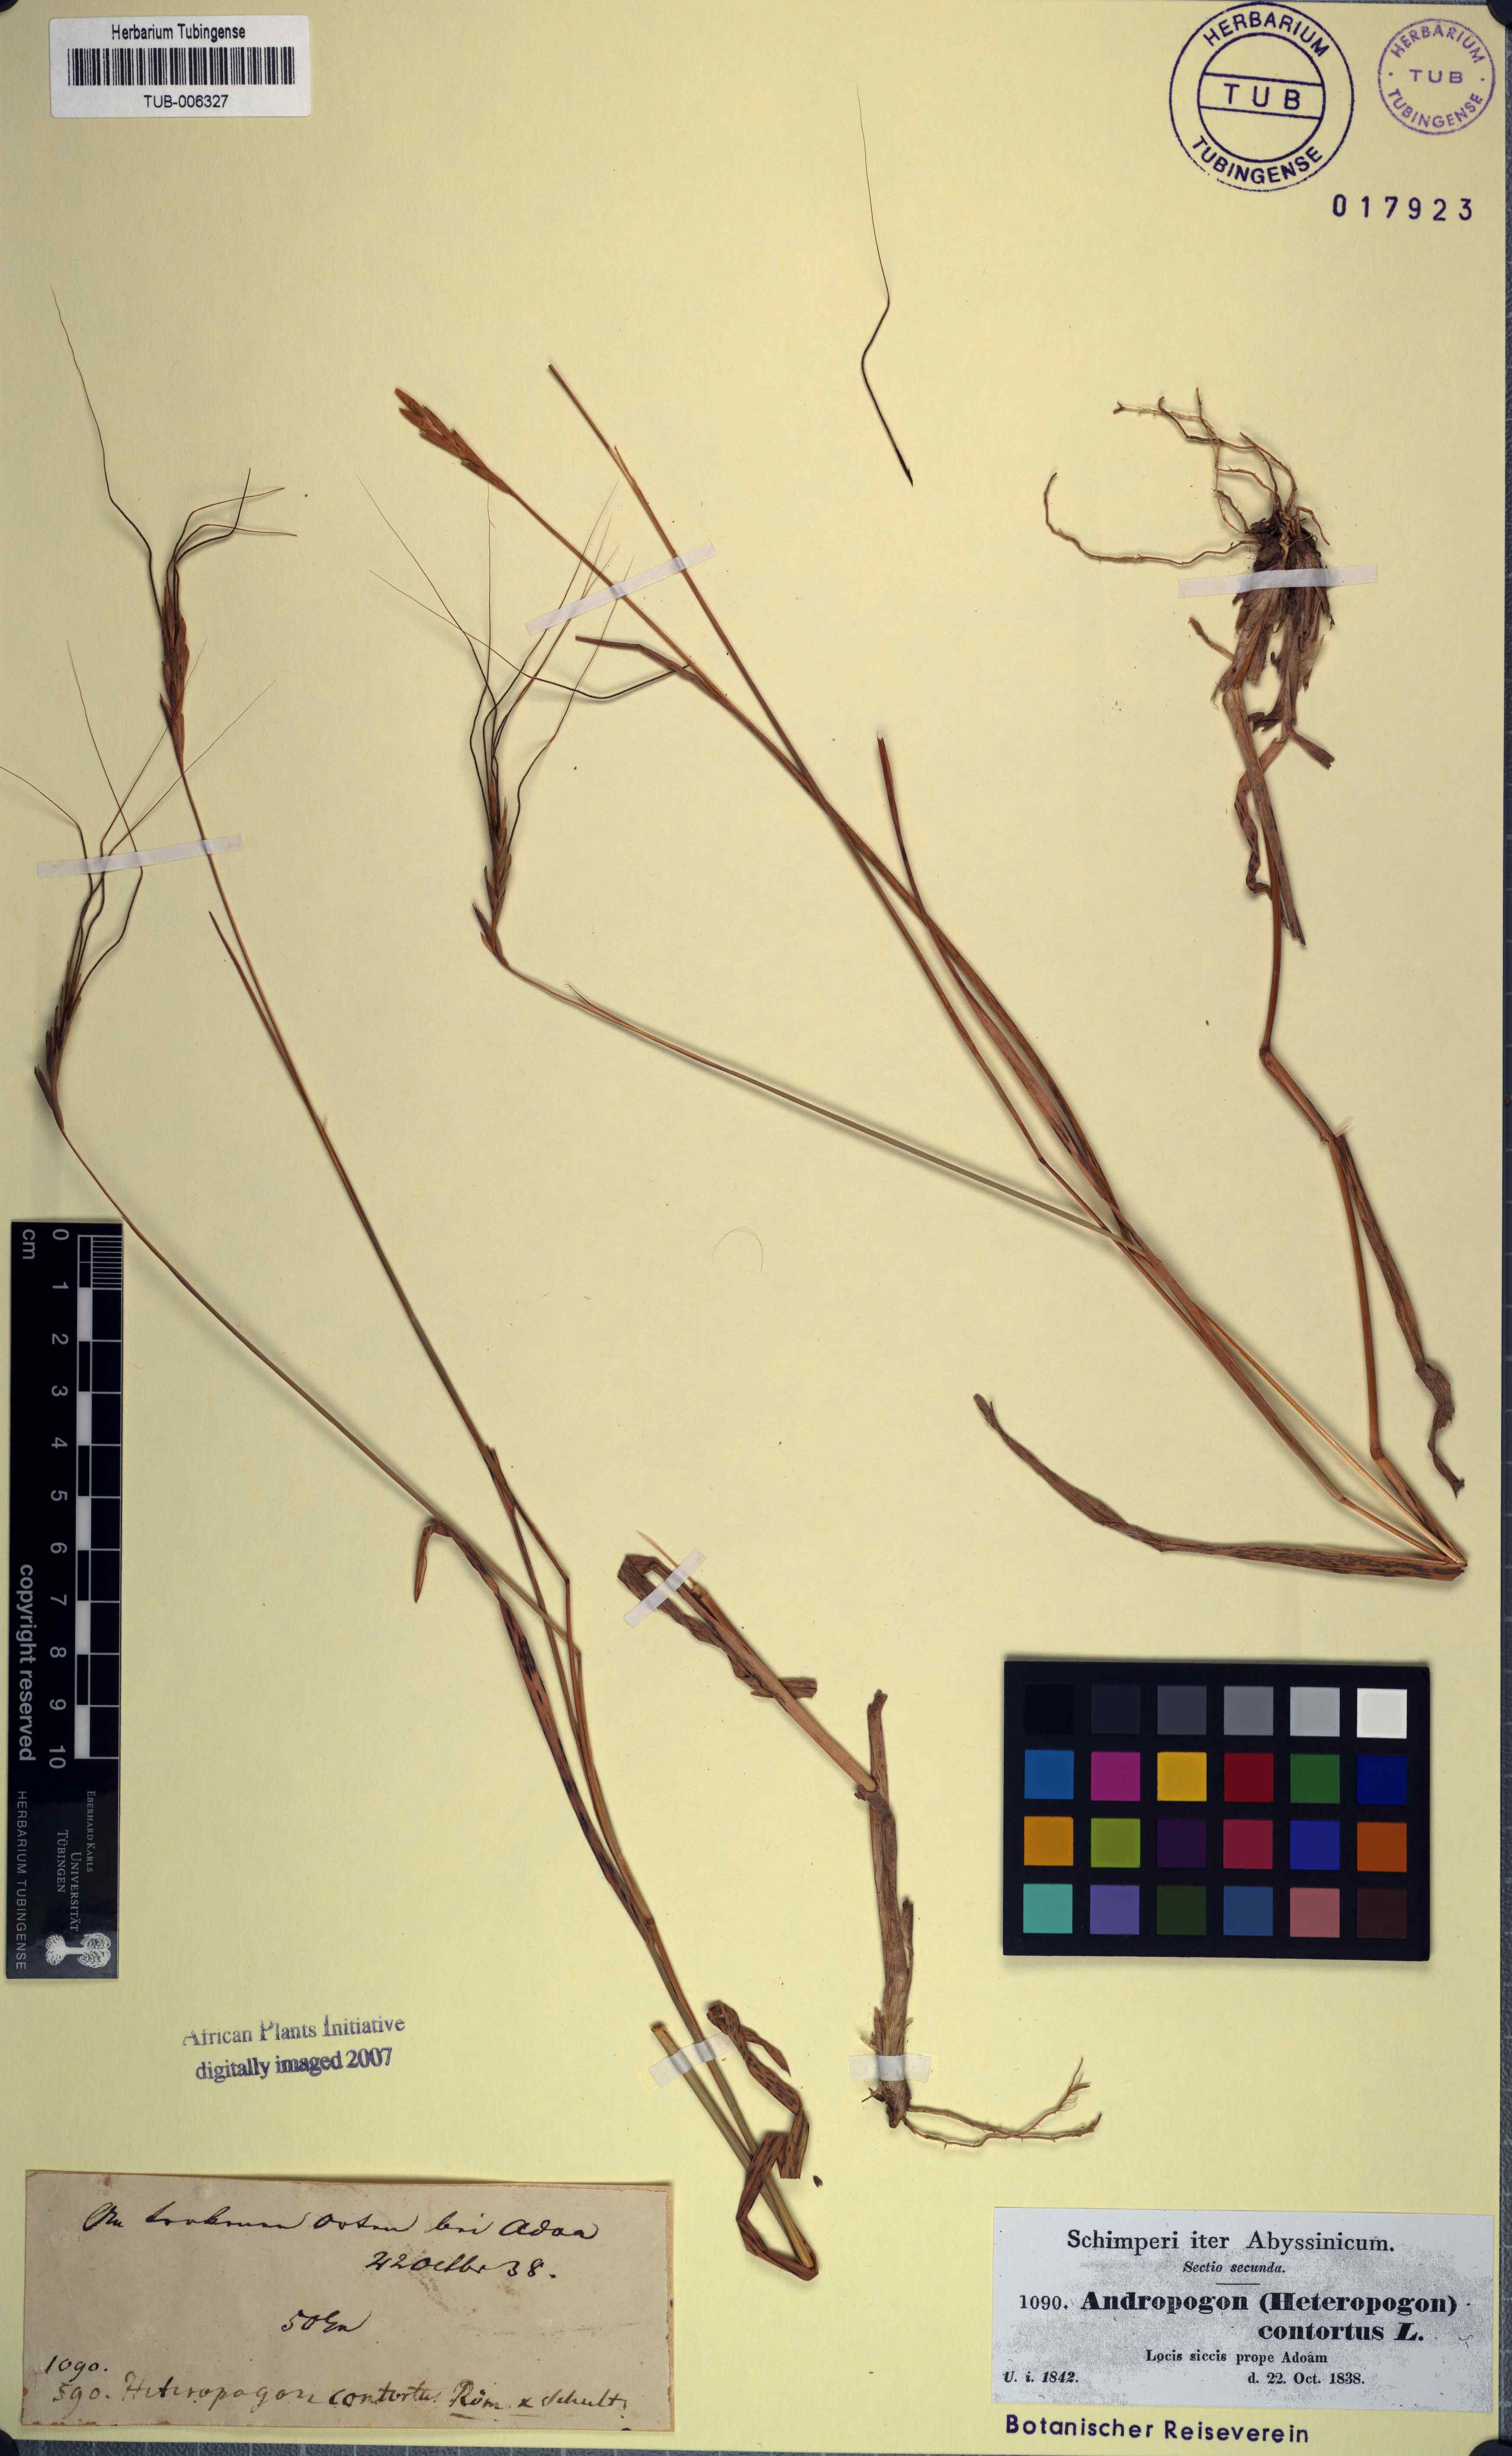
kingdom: Plantae
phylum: Tracheophyta
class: Liliopsida
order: Poales
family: Poaceae
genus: Heteropogon
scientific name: Heteropogon contortus
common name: Tanglehead
